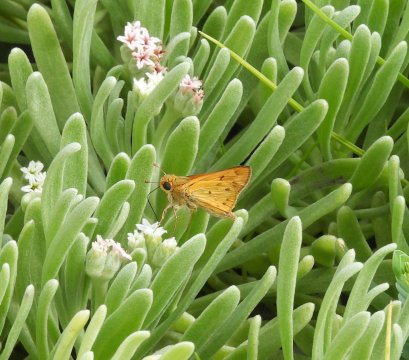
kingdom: Animalia
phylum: Arthropoda
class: Insecta
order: Lepidoptera
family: Hesperiidae
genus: Hylephila
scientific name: Hylephila phyleus
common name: Fiery Skipper
